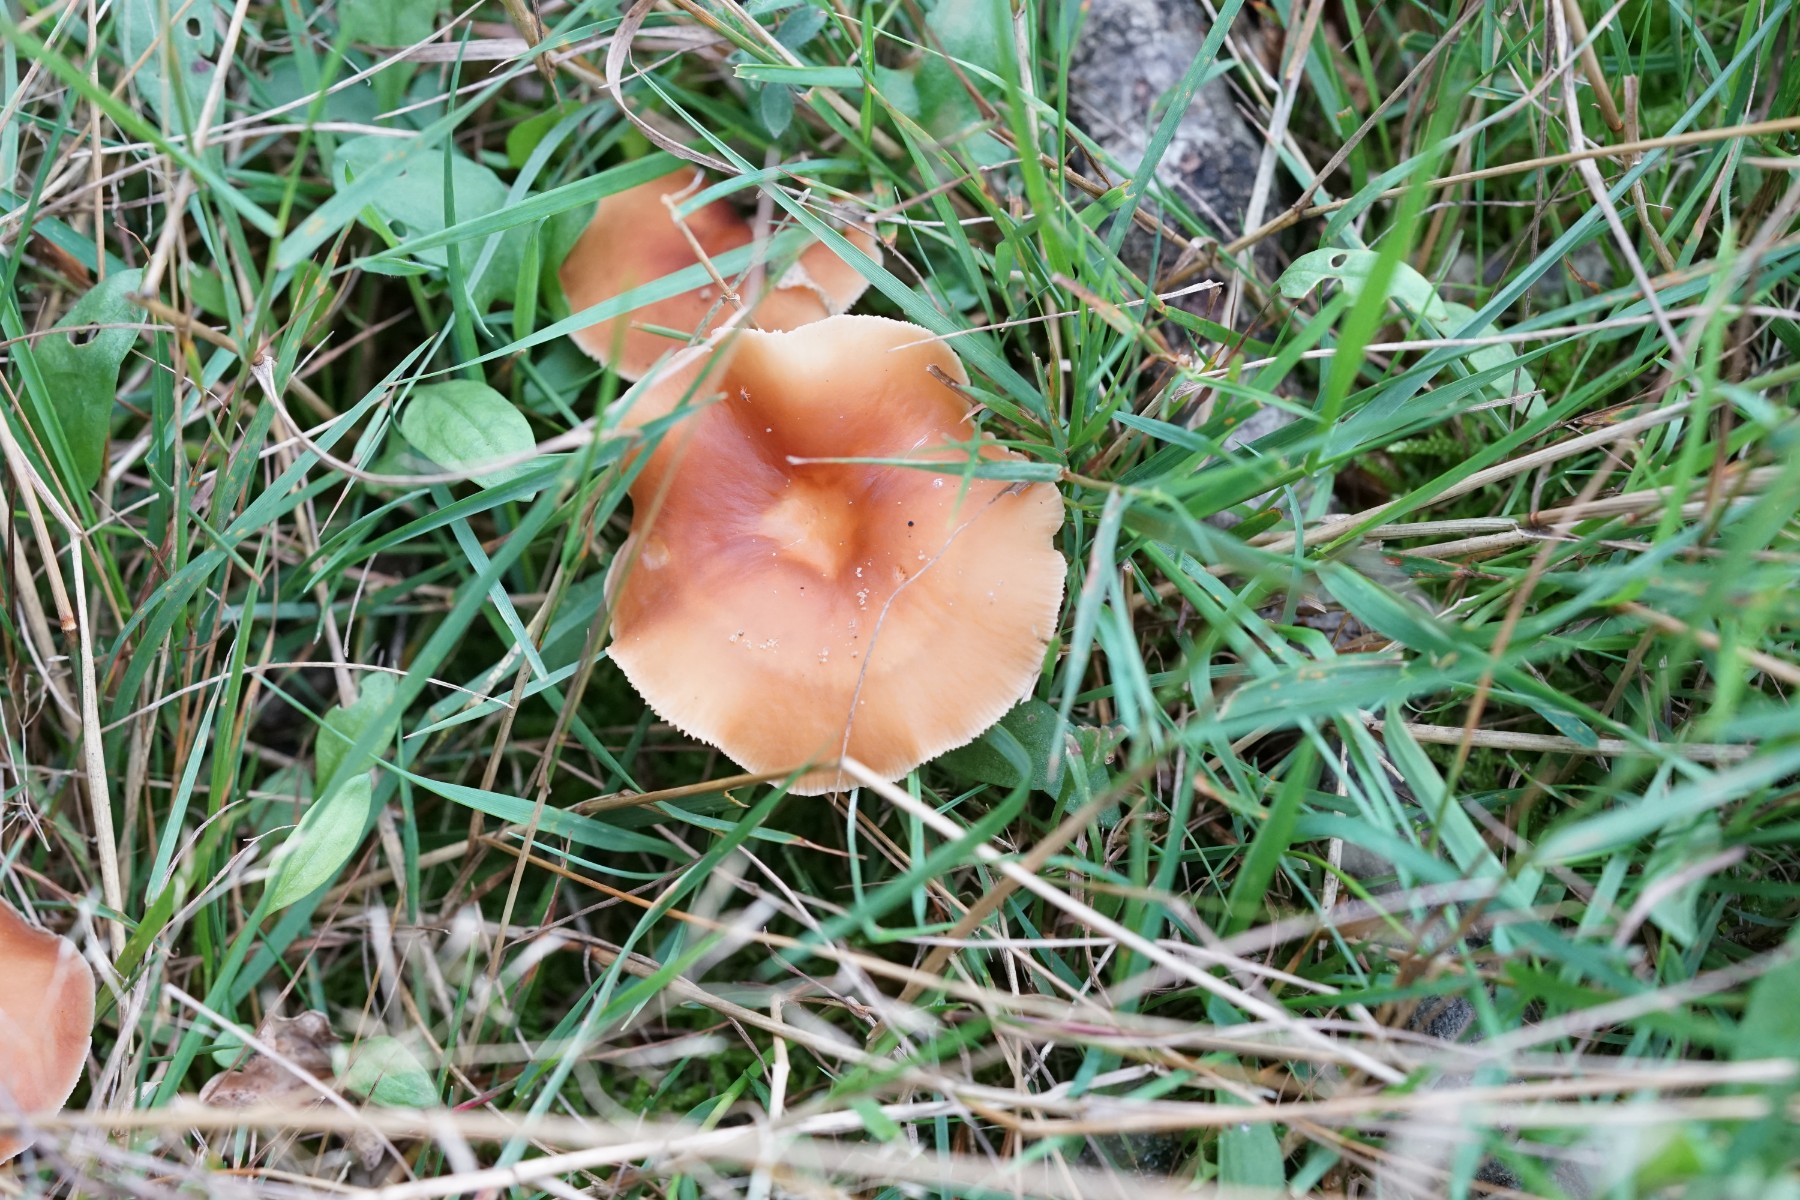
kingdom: Fungi
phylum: Basidiomycota
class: Agaricomycetes
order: Agaricales
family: Omphalotaceae
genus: Gymnopus
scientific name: Gymnopus
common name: fladhat
